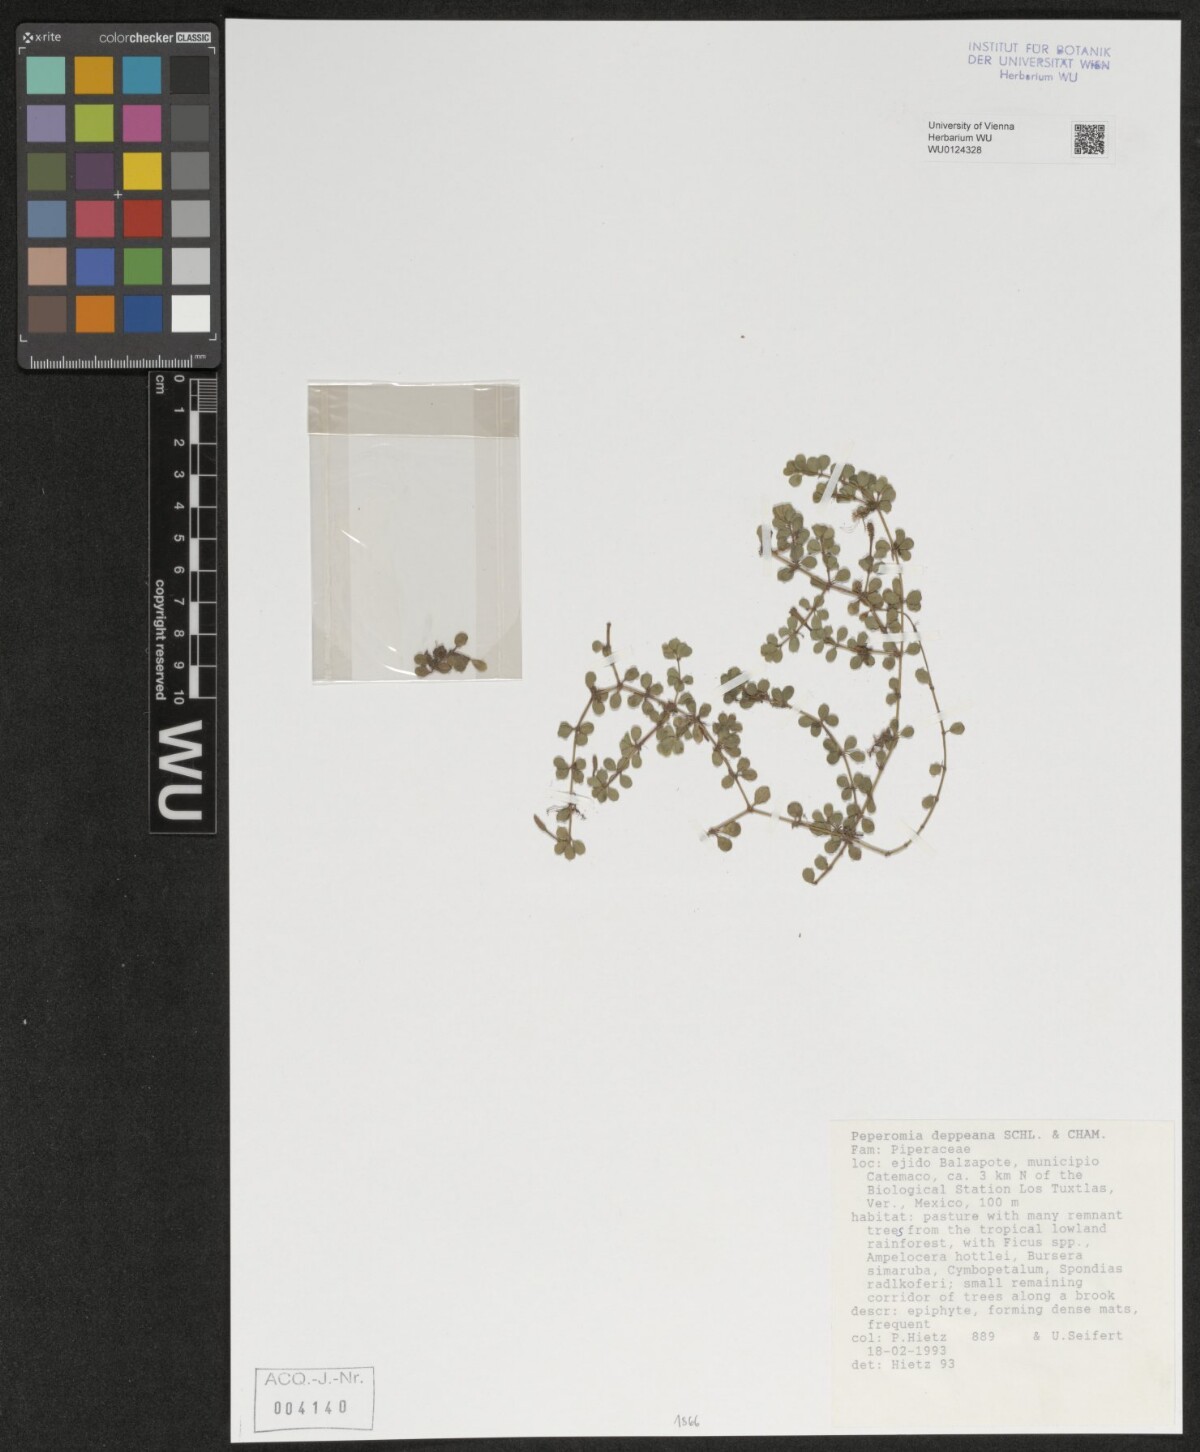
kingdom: Plantae
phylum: Tracheophyta
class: Magnoliopsida
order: Piperales
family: Piperaceae
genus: Peperomia
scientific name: Peperomia deppeana
